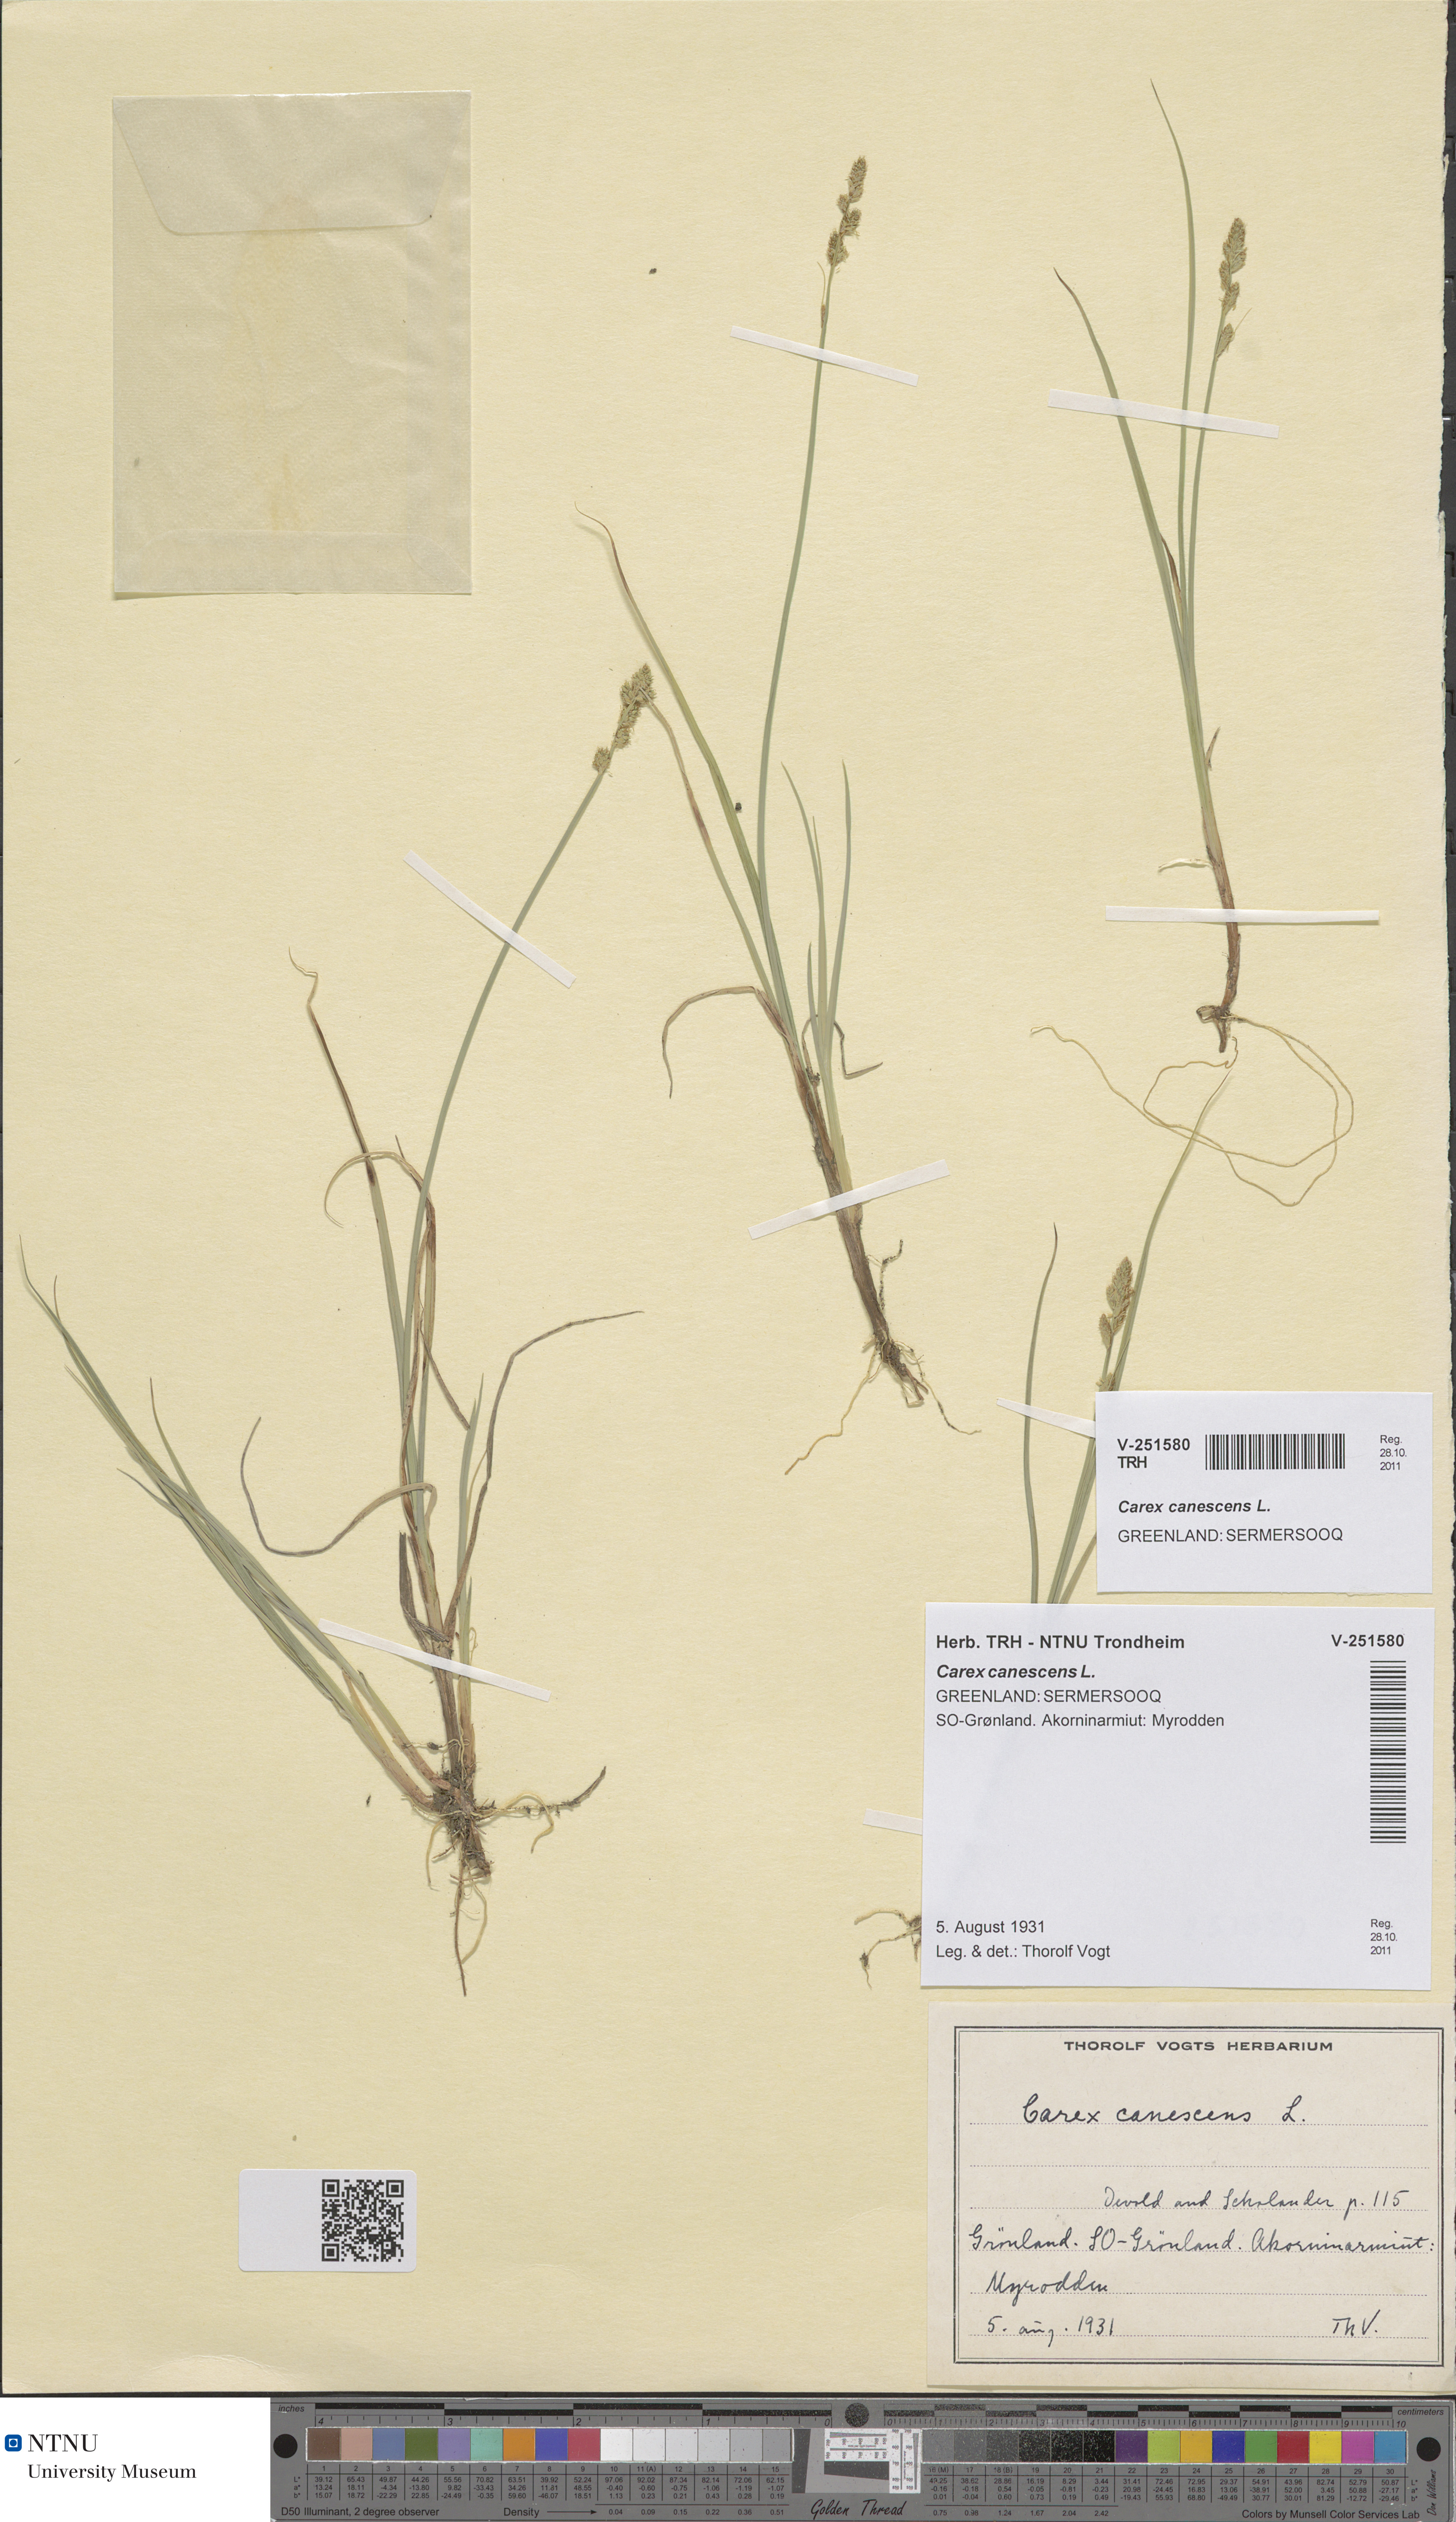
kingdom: Plantae
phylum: Tracheophyta
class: Liliopsida
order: Poales
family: Cyperaceae
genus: Carex
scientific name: Carex canescens
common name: White sedge
